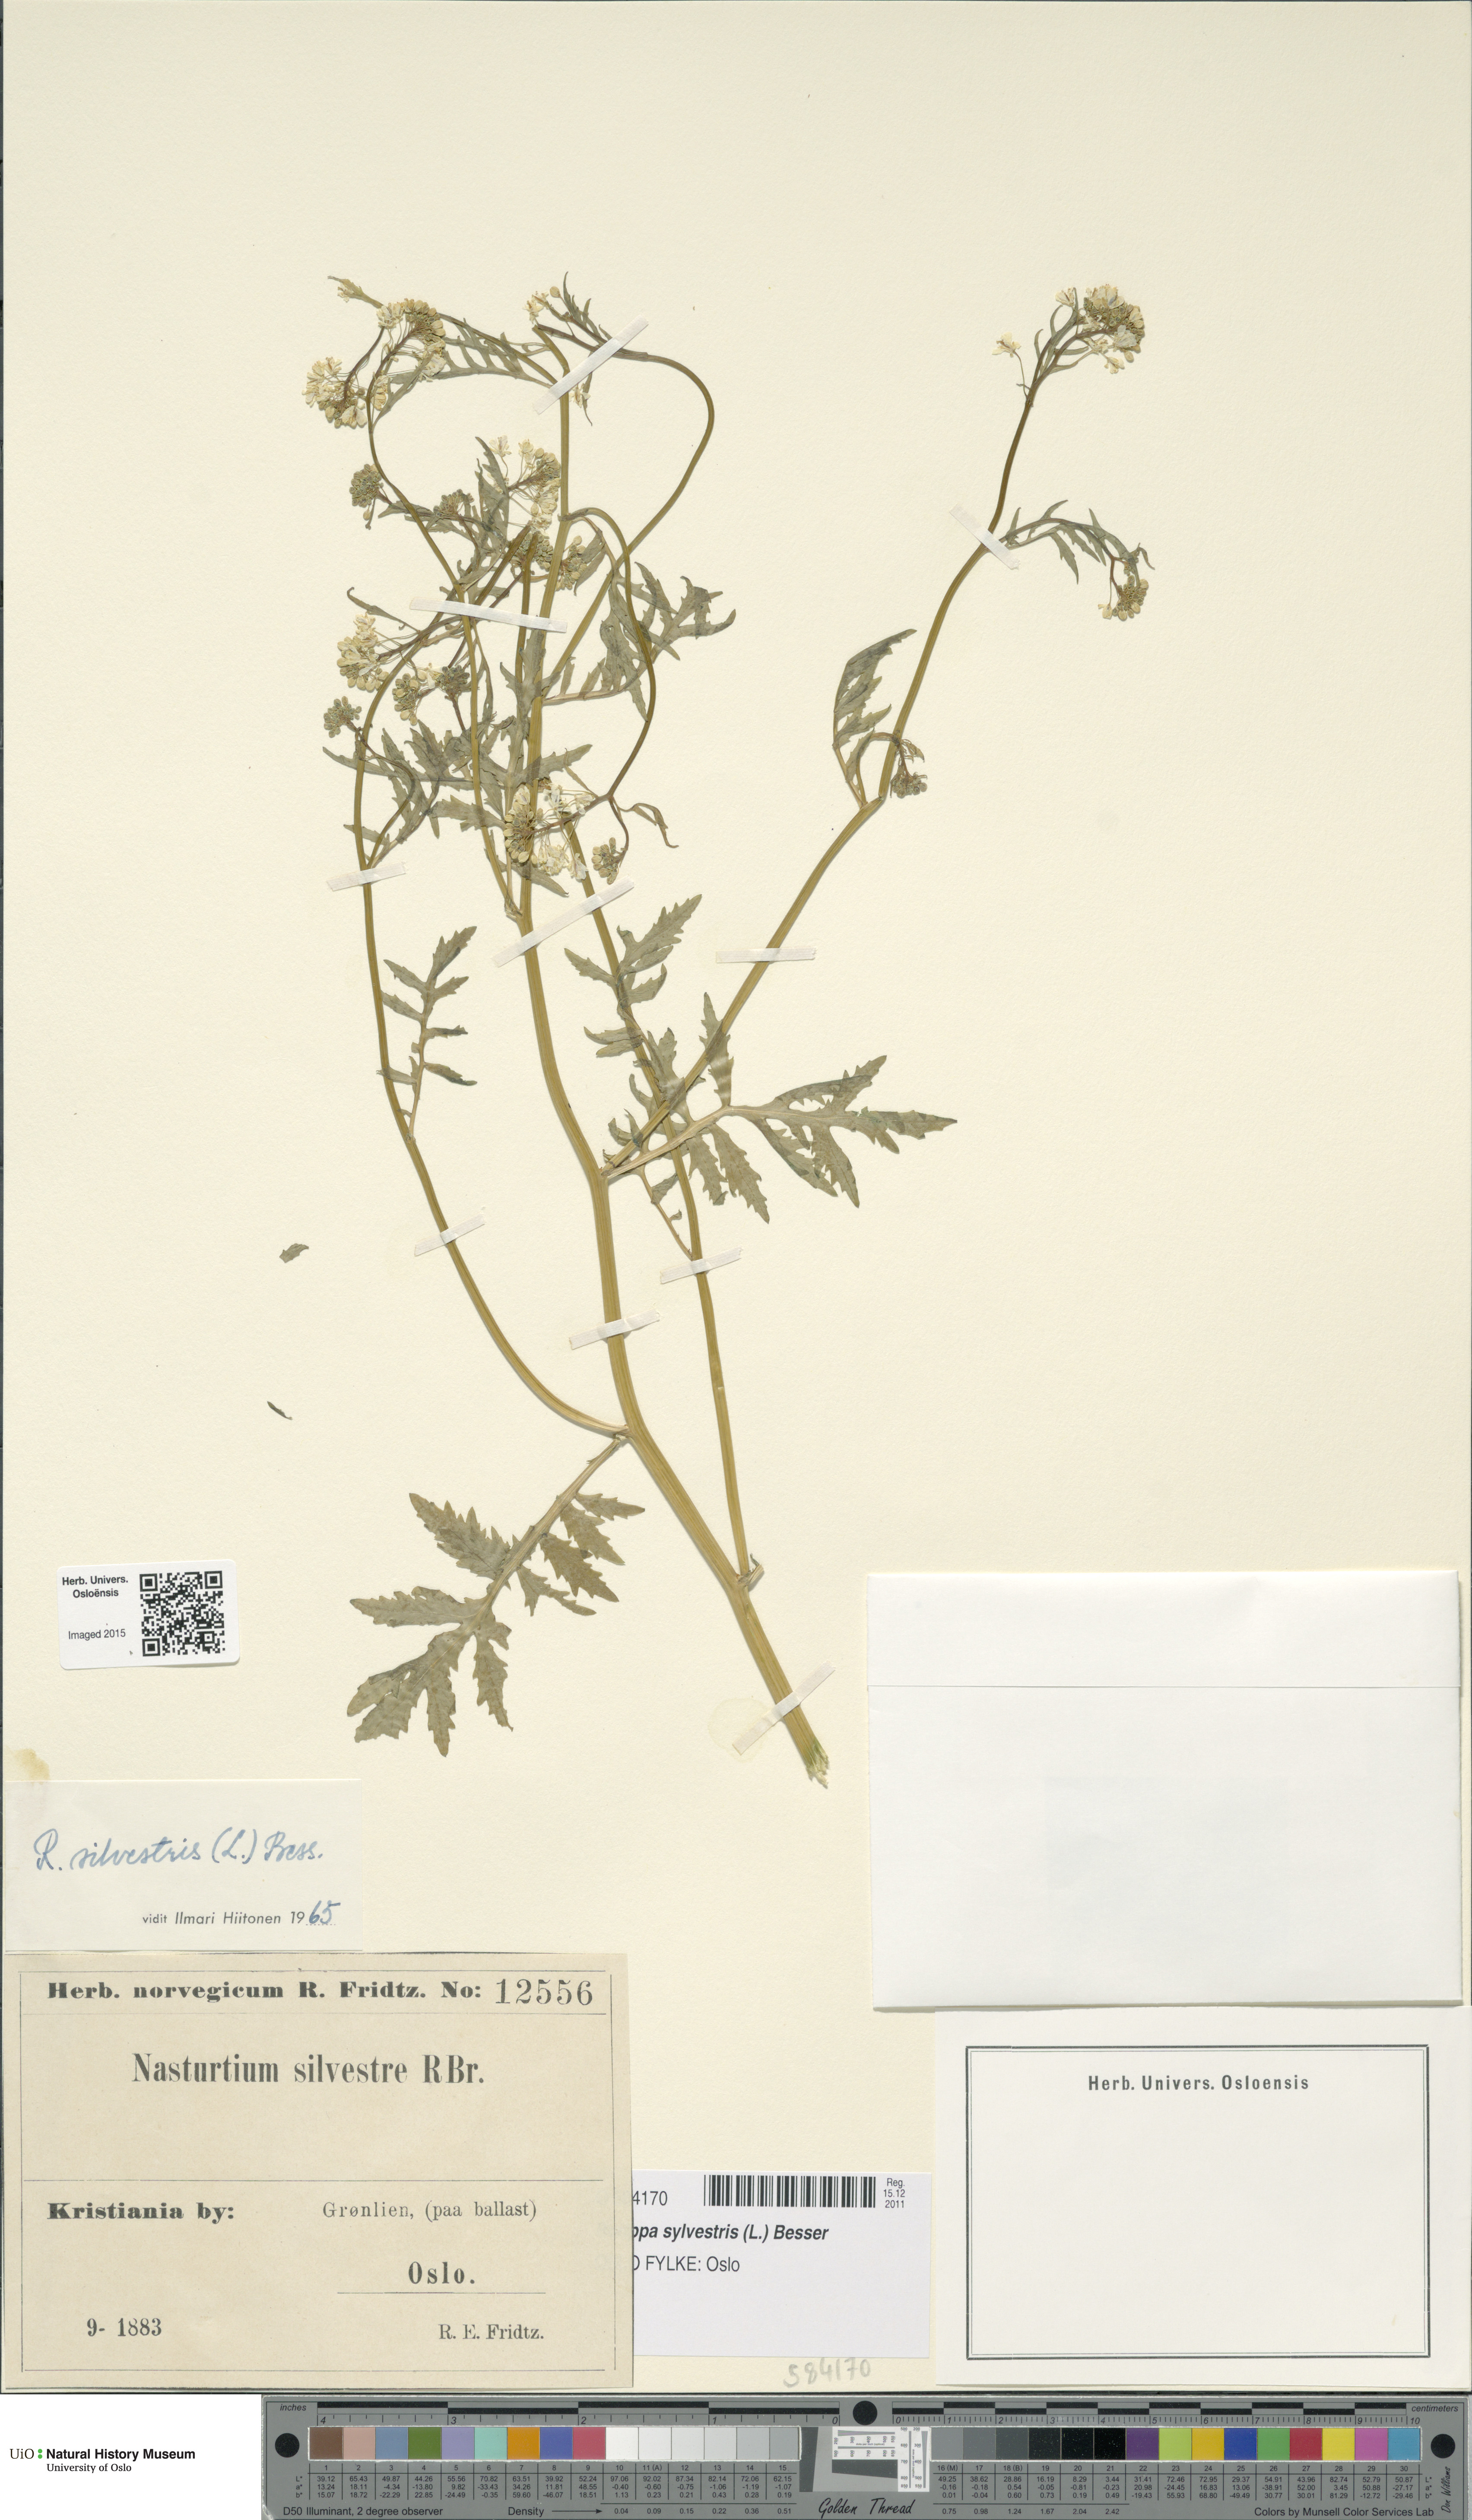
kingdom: Plantae
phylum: Tracheophyta
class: Magnoliopsida
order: Brassicales
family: Brassicaceae
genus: Rorippa
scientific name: Rorippa sylvestris
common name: Creeping yellowcress
